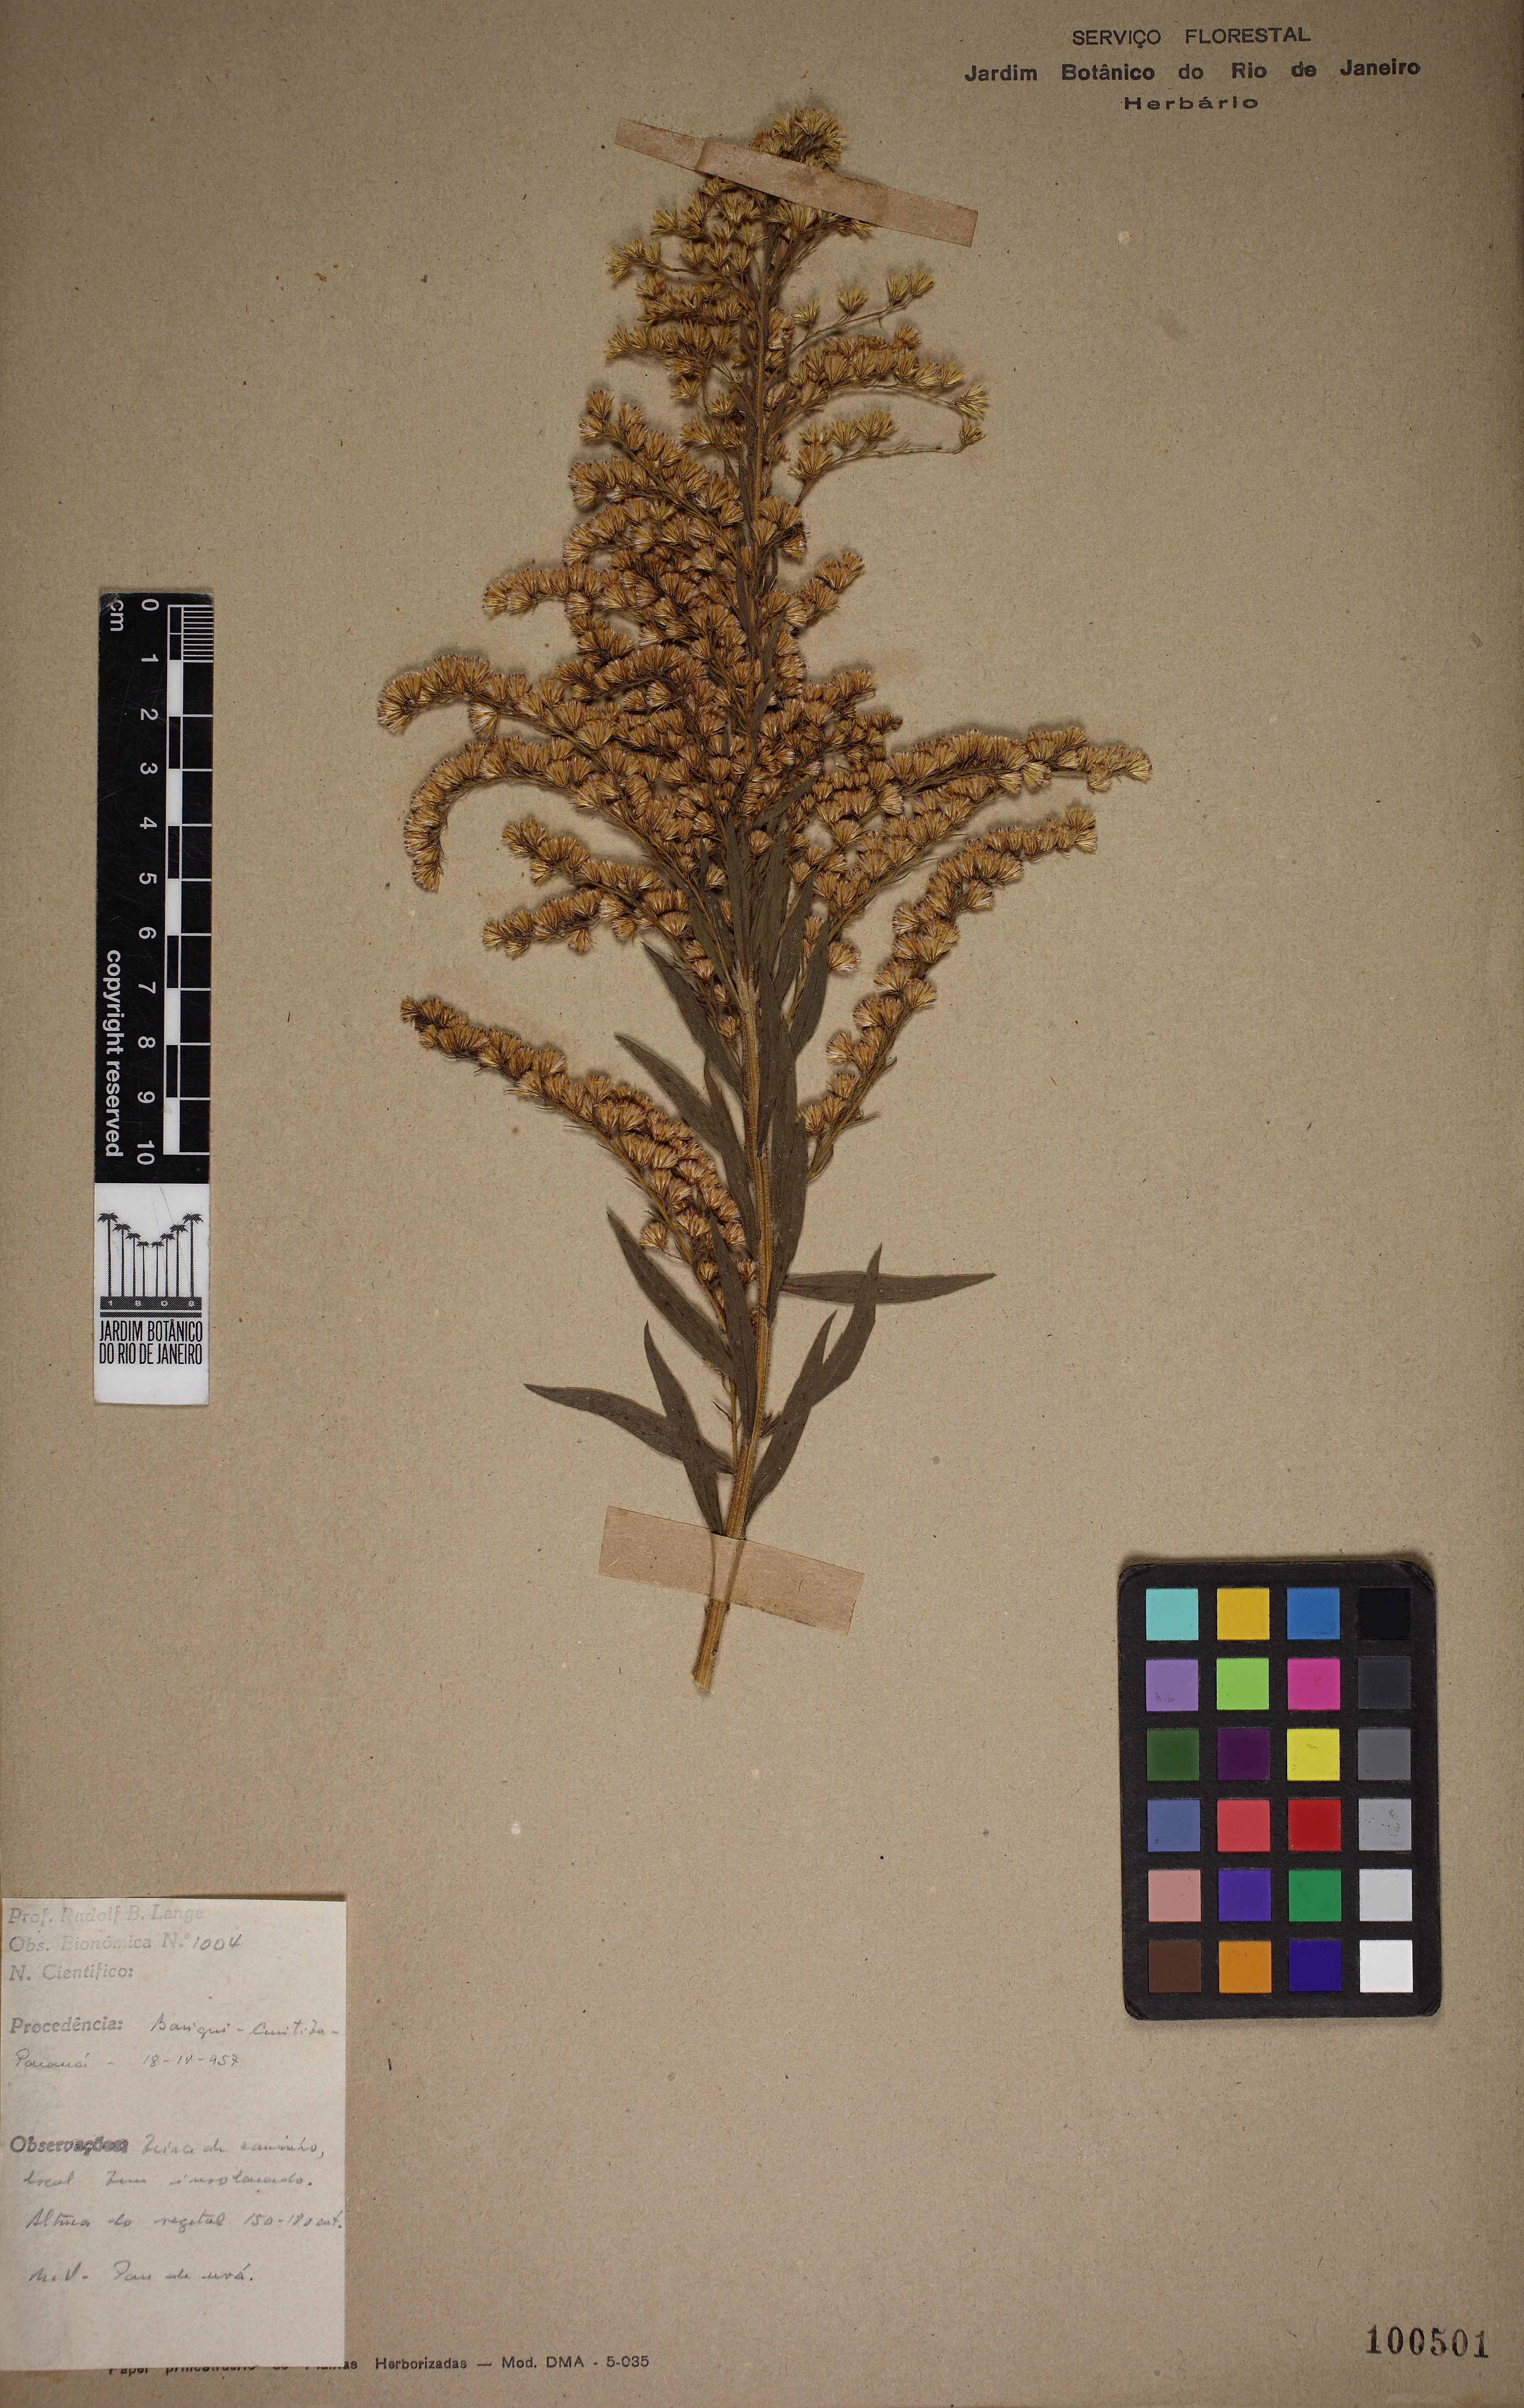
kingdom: Plantae
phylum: Tracheophyta
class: Magnoliopsida
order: Asterales
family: Asteraceae
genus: Solidago
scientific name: Solidago chilensis
